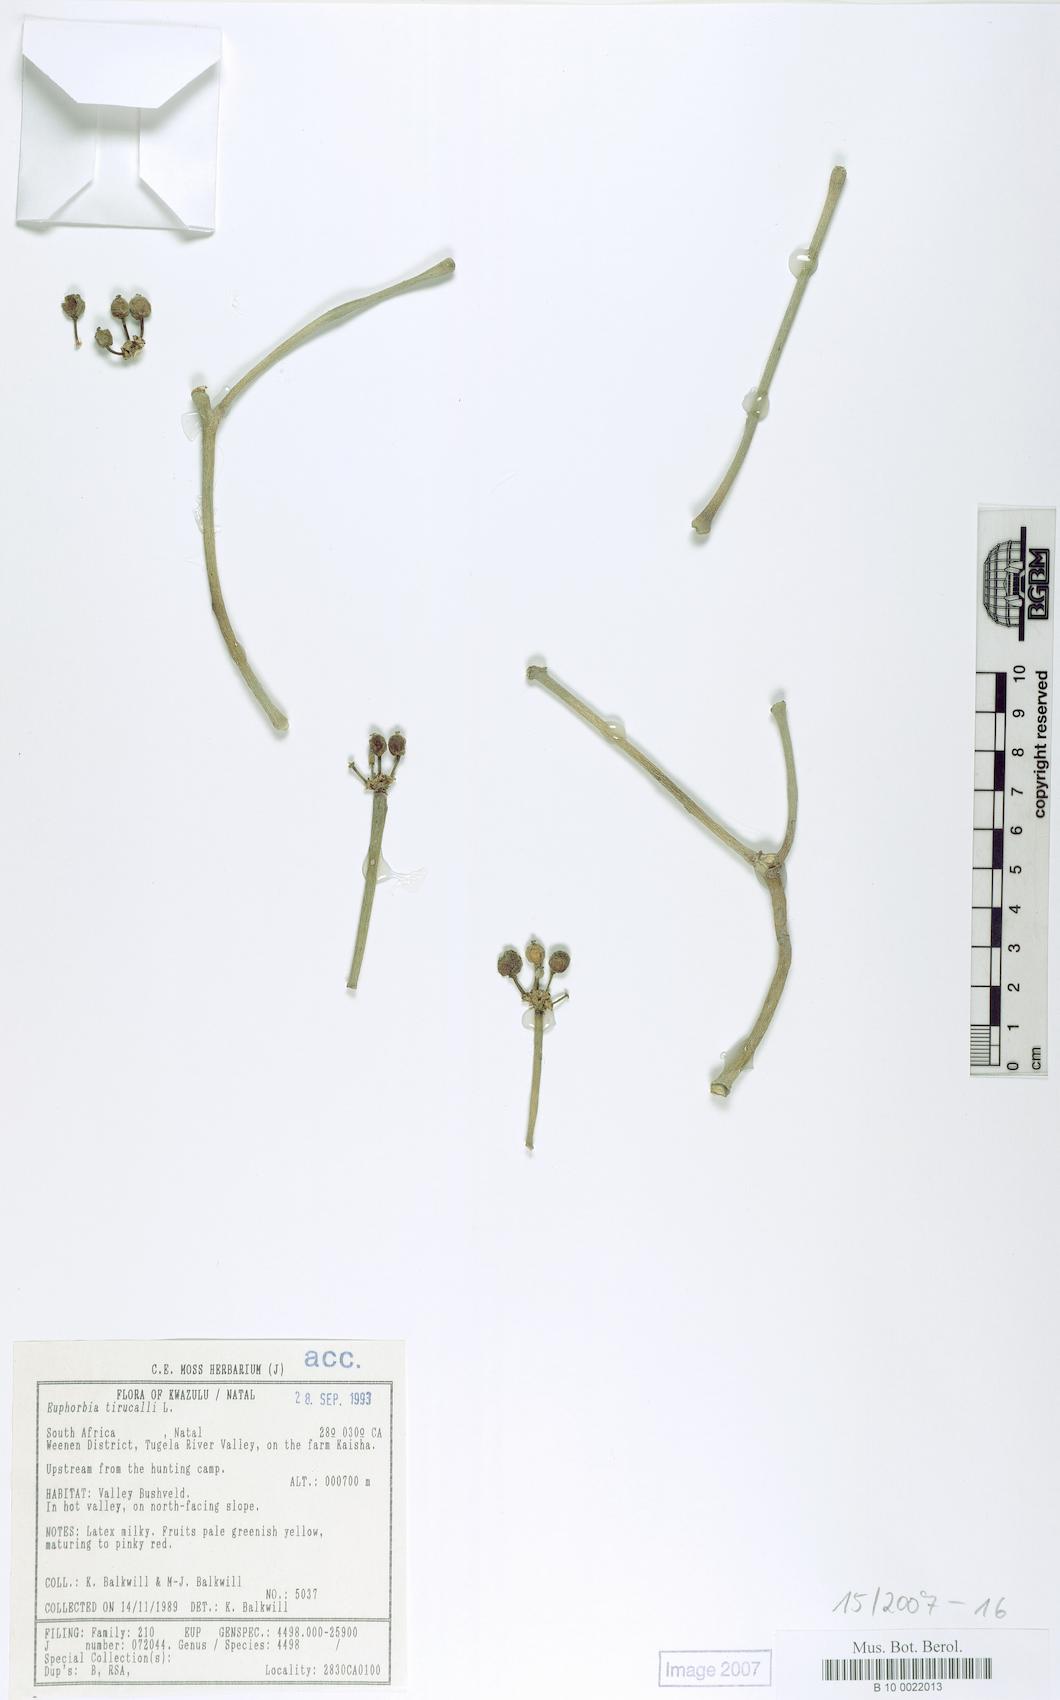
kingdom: Plantae
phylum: Tracheophyta
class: Magnoliopsida
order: Malpighiales
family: Euphorbiaceae
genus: Euphorbia
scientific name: Euphorbia tirucalli
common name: Indiantree spurge
